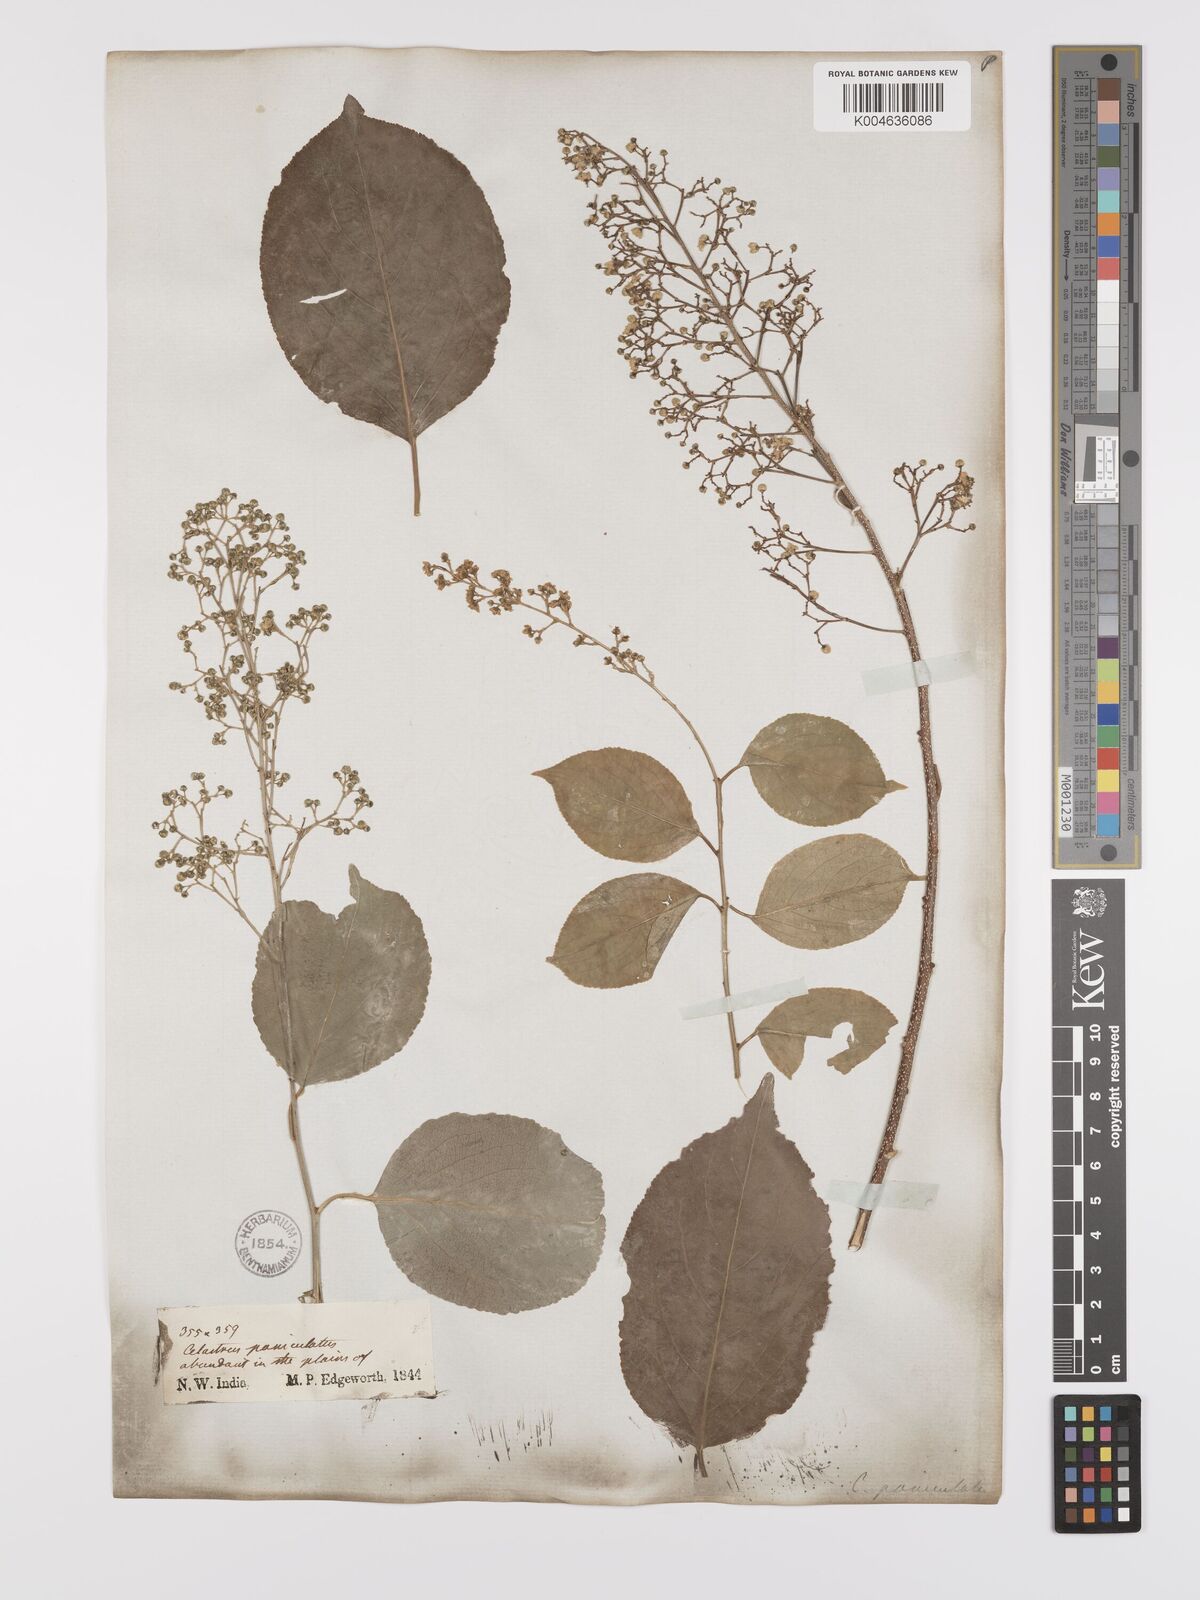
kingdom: Plantae
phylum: Tracheophyta
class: Magnoliopsida
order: Celastrales
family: Celastraceae
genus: Celastrus
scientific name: Celastrus paniculatus
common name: Oriental bittersweet; staff vine
